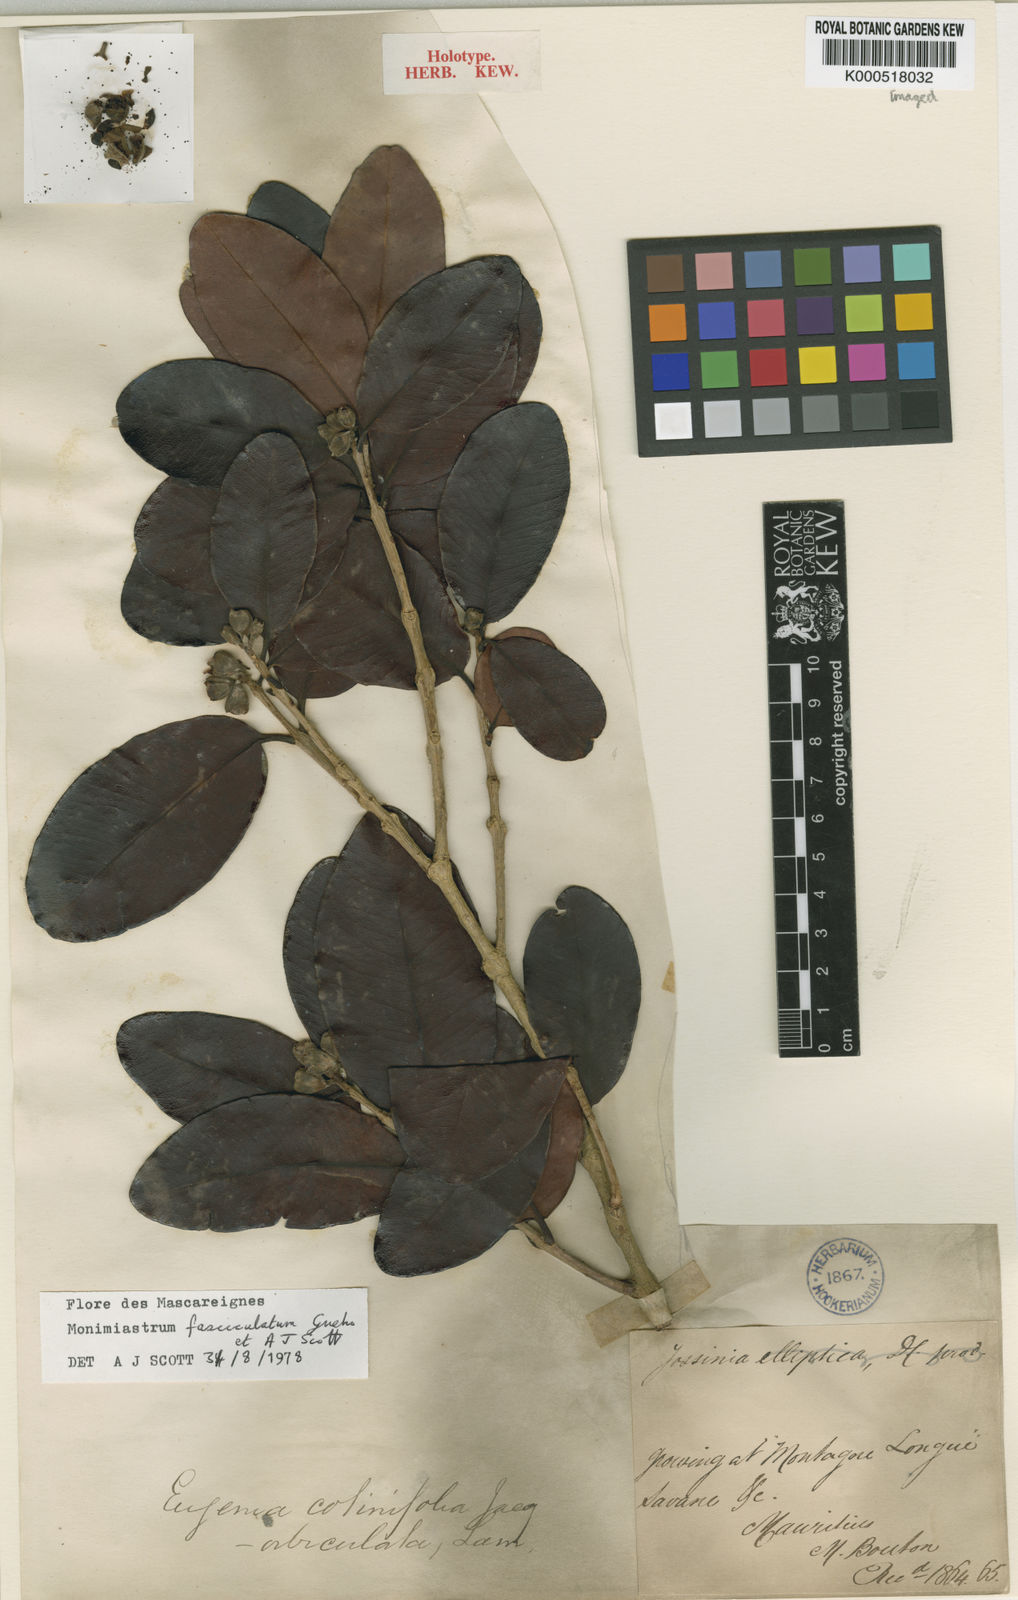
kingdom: Plantae
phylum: Tracheophyta
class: Magnoliopsida
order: Myrtales
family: Myrtaceae
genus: Eugenia
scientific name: Eugenia roxburghii
